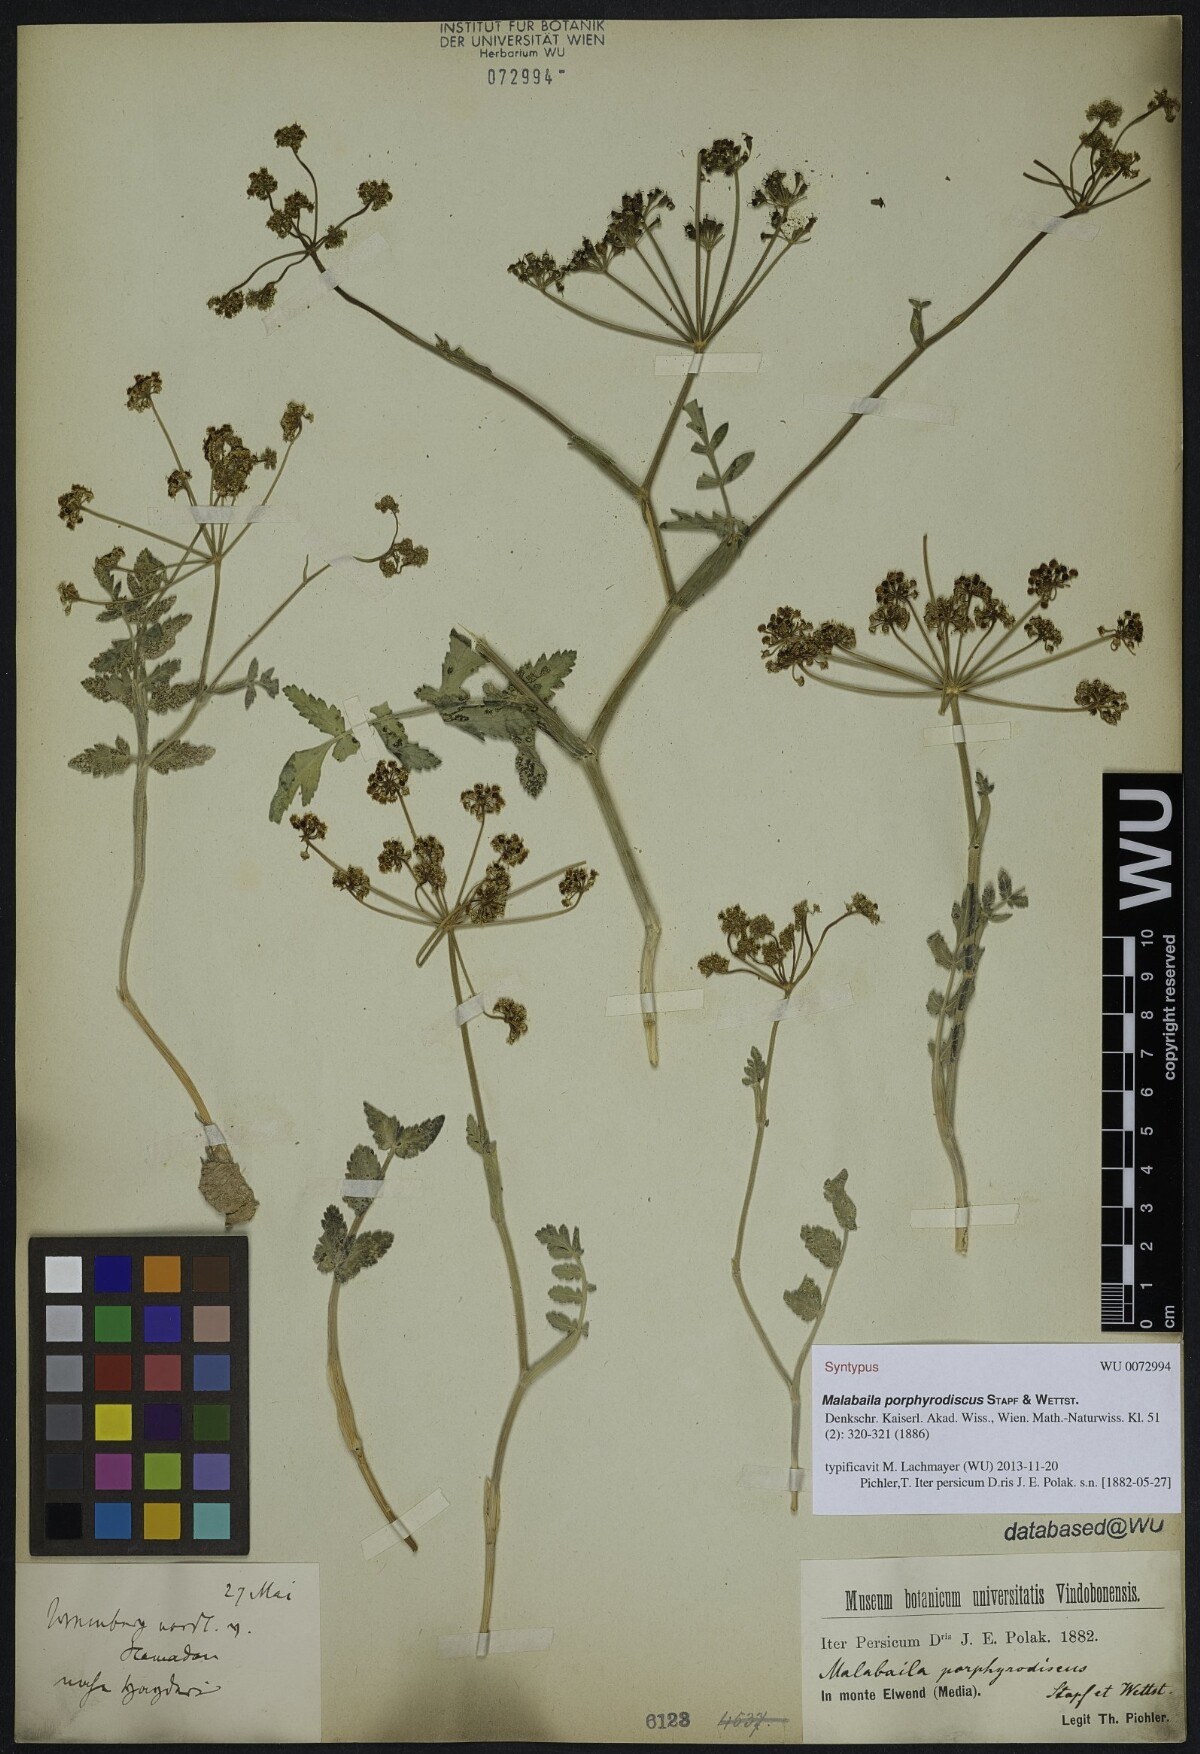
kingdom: Plantae
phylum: Tracheophyta
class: Magnoliopsida
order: Apiales
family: Apiaceae
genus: Leiotulus
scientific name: Leiotulus porphyrodiscus
